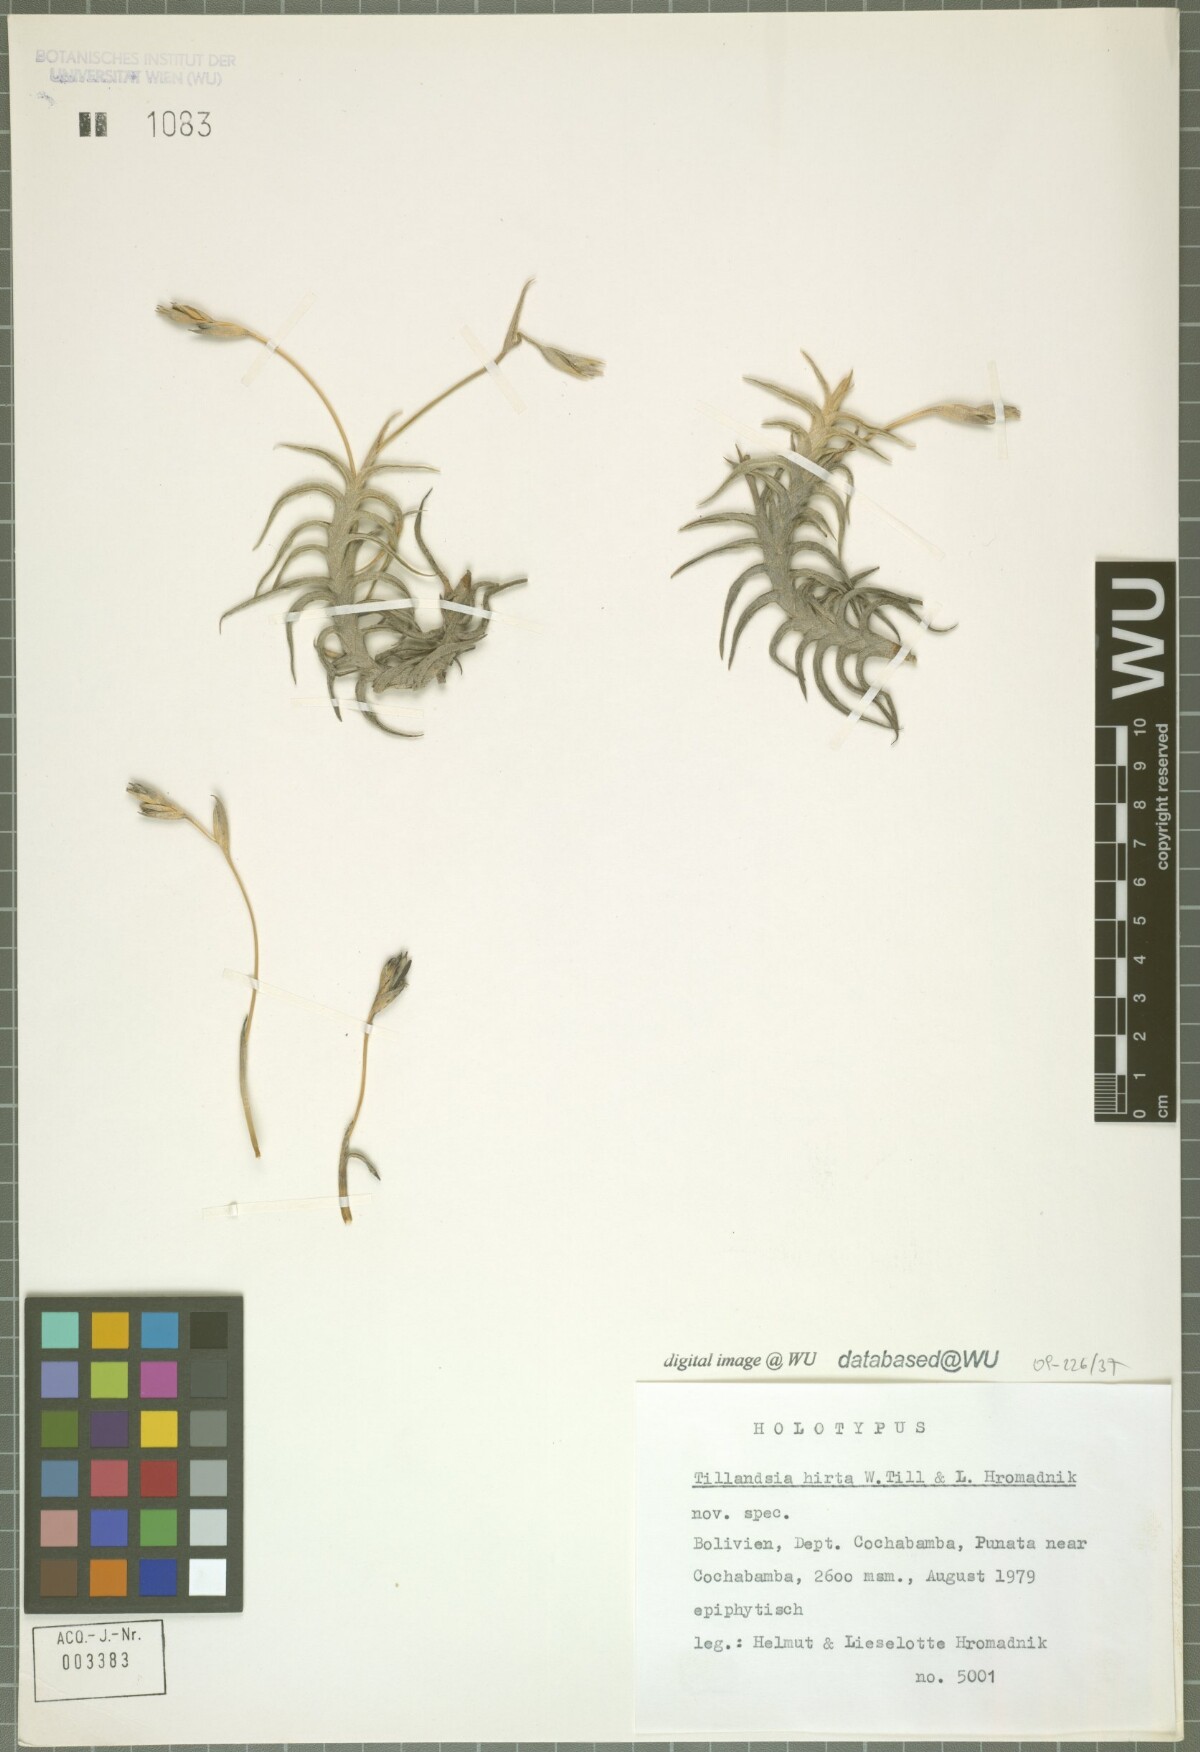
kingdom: Plantae
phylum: Tracheophyta
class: Liliopsida
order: Poales
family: Bromeliaceae
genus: Tillandsia
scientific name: Tillandsia hirta
